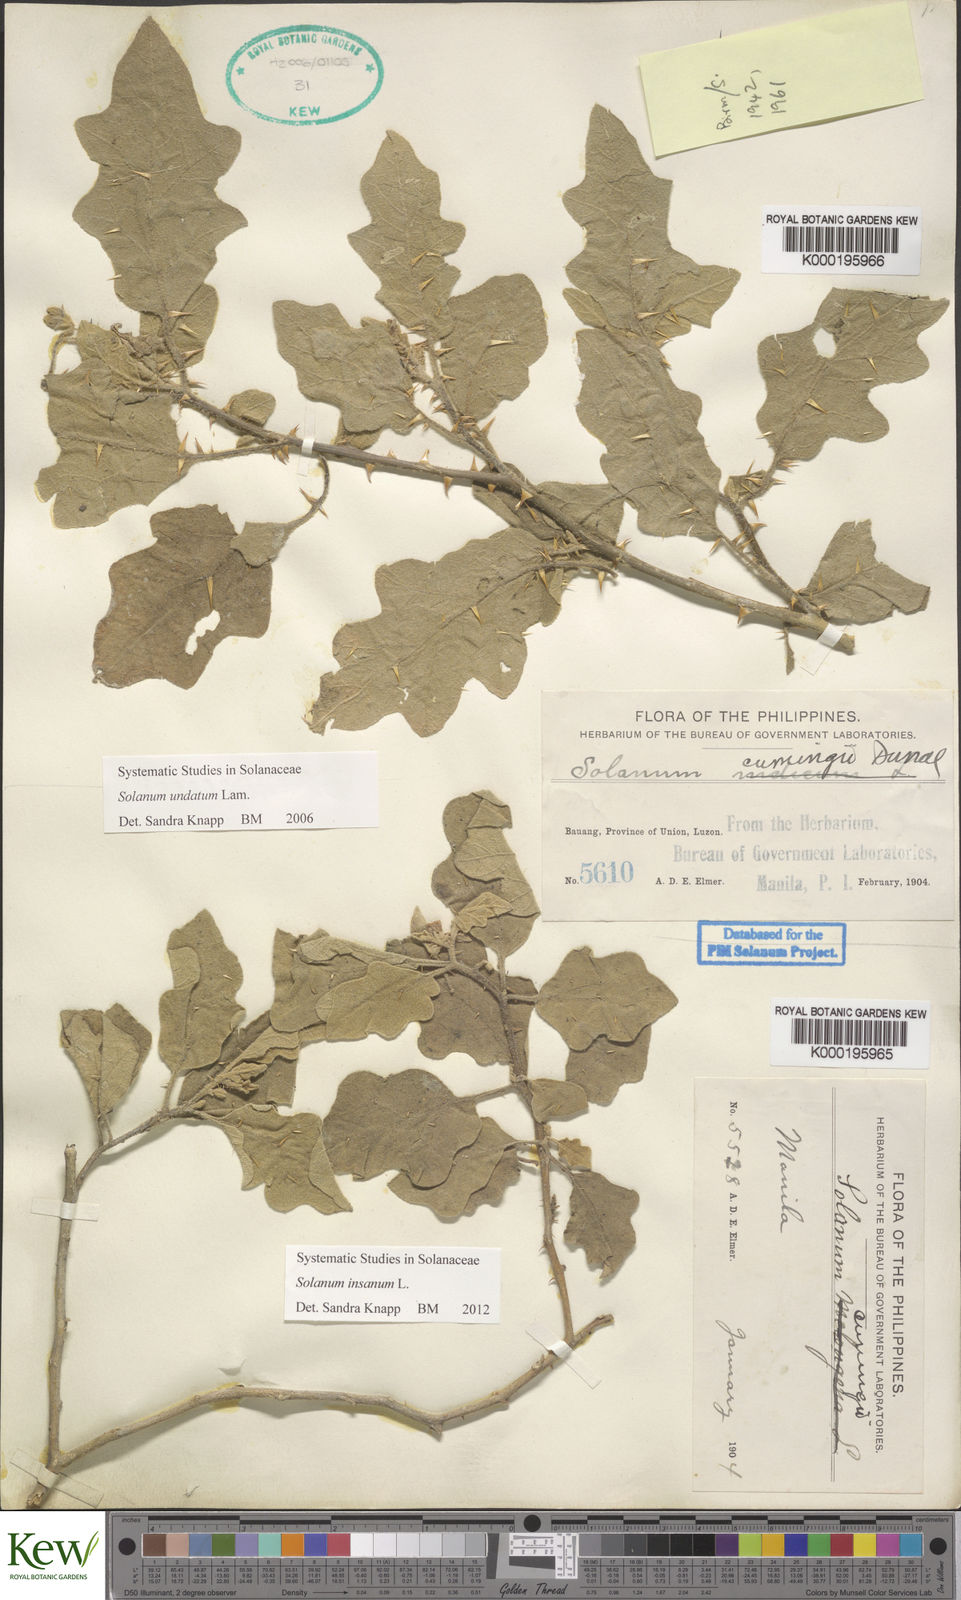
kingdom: Plantae
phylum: Tracheophyta
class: Magnoliopsida
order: Solanales
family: Solanaceae
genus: Solanum
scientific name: Solanum insanum
